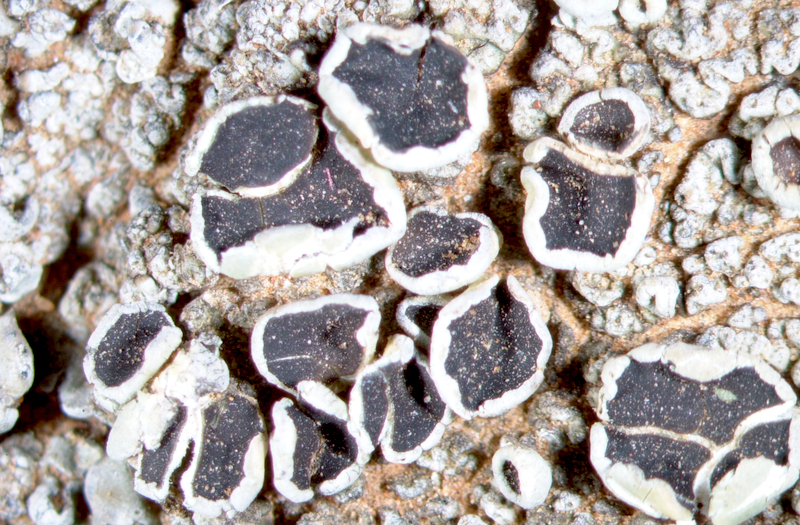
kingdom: Fungi
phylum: Ascomycota
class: Lecanoromycetes
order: Lecanorales
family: Parmeliaceae
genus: Paraparmelia
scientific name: Paraparmelia
